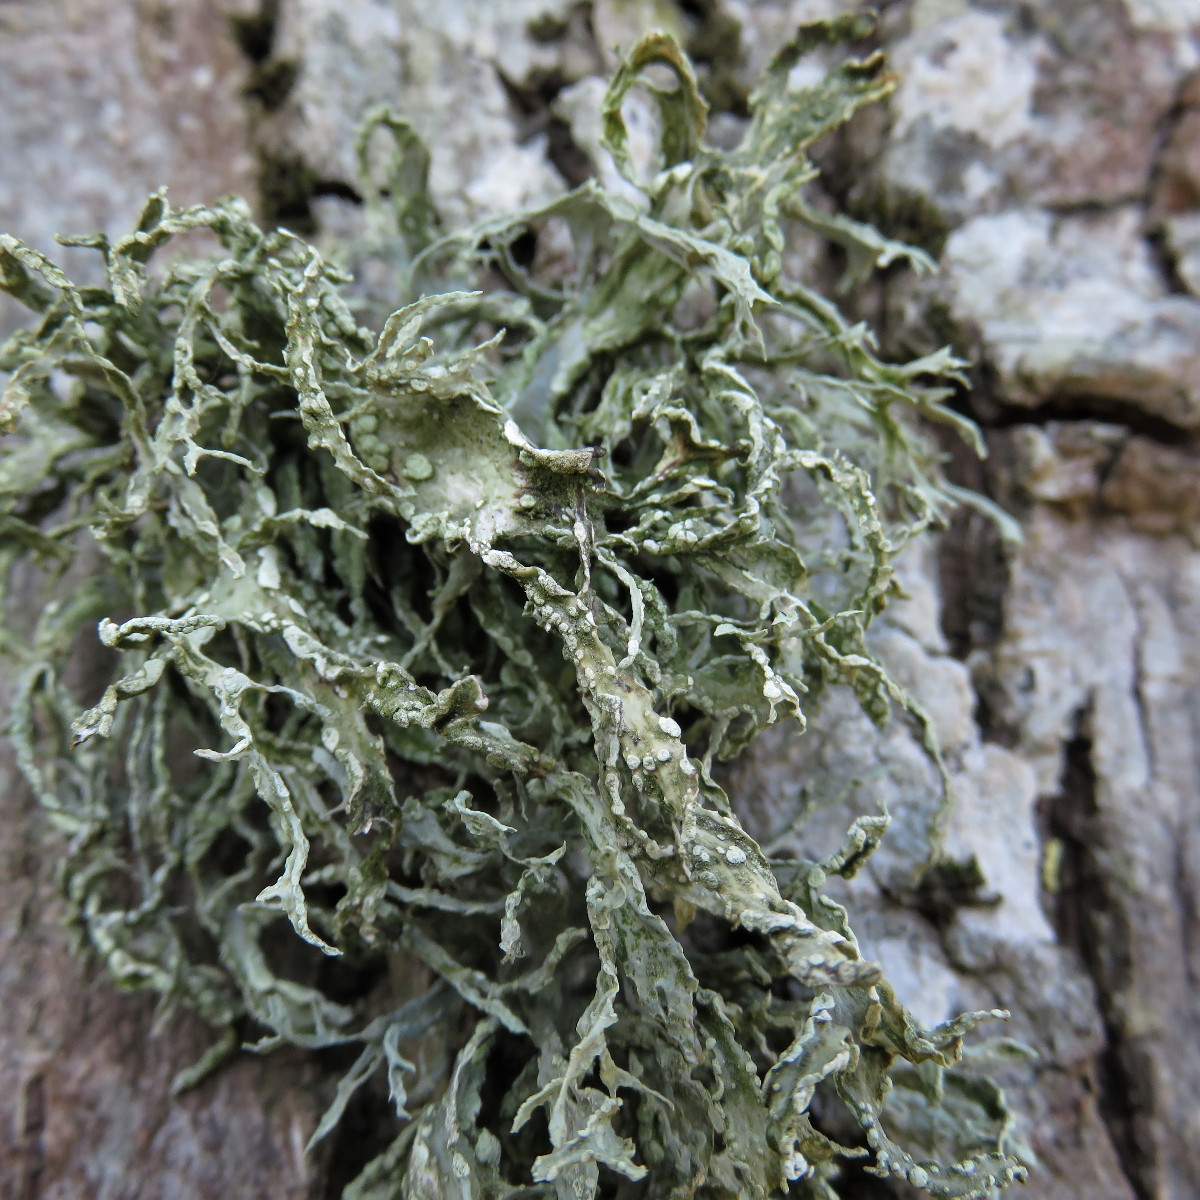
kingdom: Fungi
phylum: Ascomycota
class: Lecanoromycetes
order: Lecanorales
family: Ramalinaceae
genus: Ramalina
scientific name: Ramalina farinacea
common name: melet grenlav
